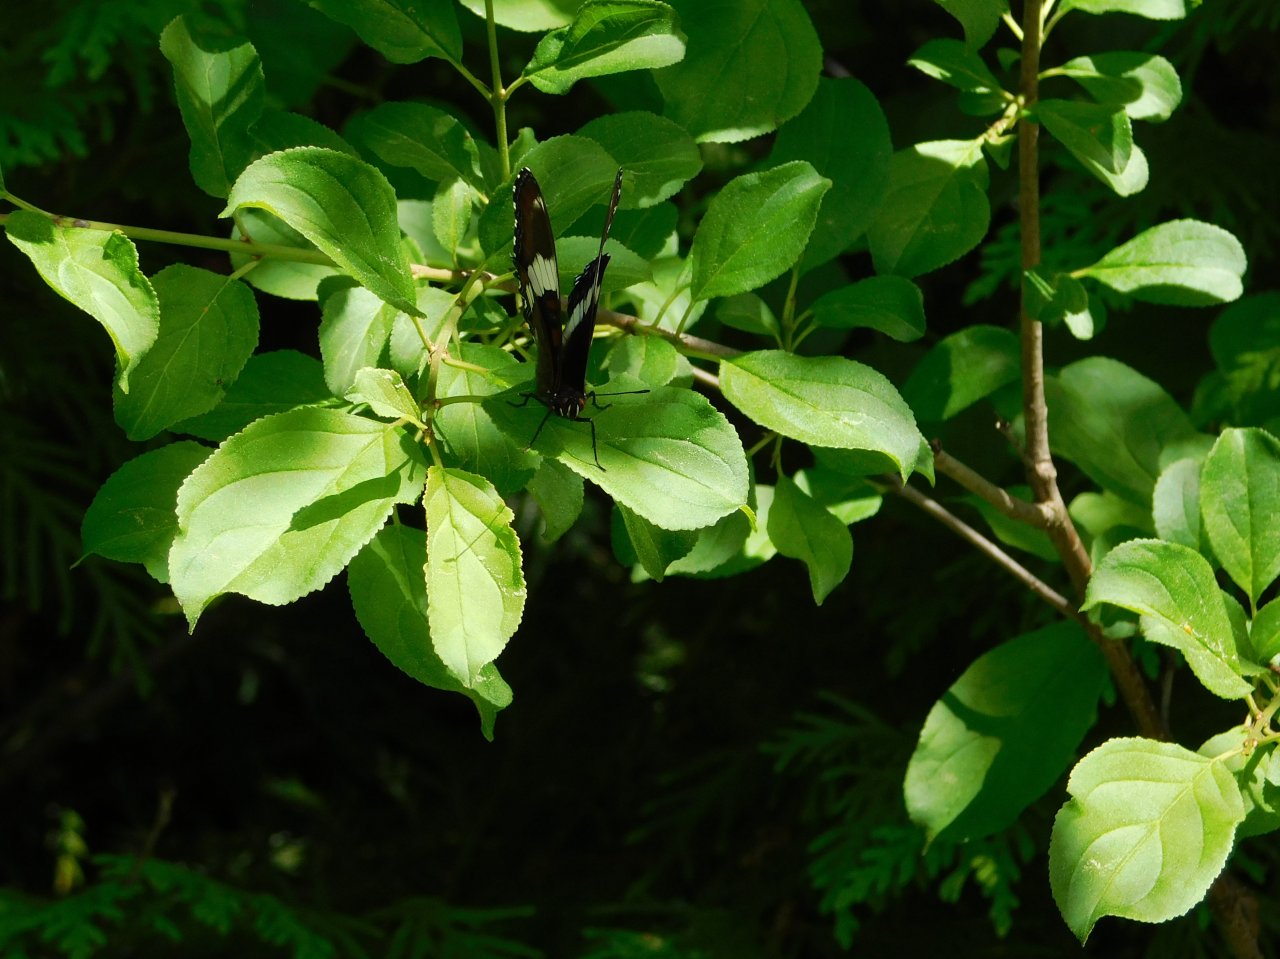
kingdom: Animalia
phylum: Arthropoda
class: Insecta
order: Lepidoptera
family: Nymphalidae
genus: Limenitis
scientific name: Limenitis arthemis
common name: Red-spotted Admiral
